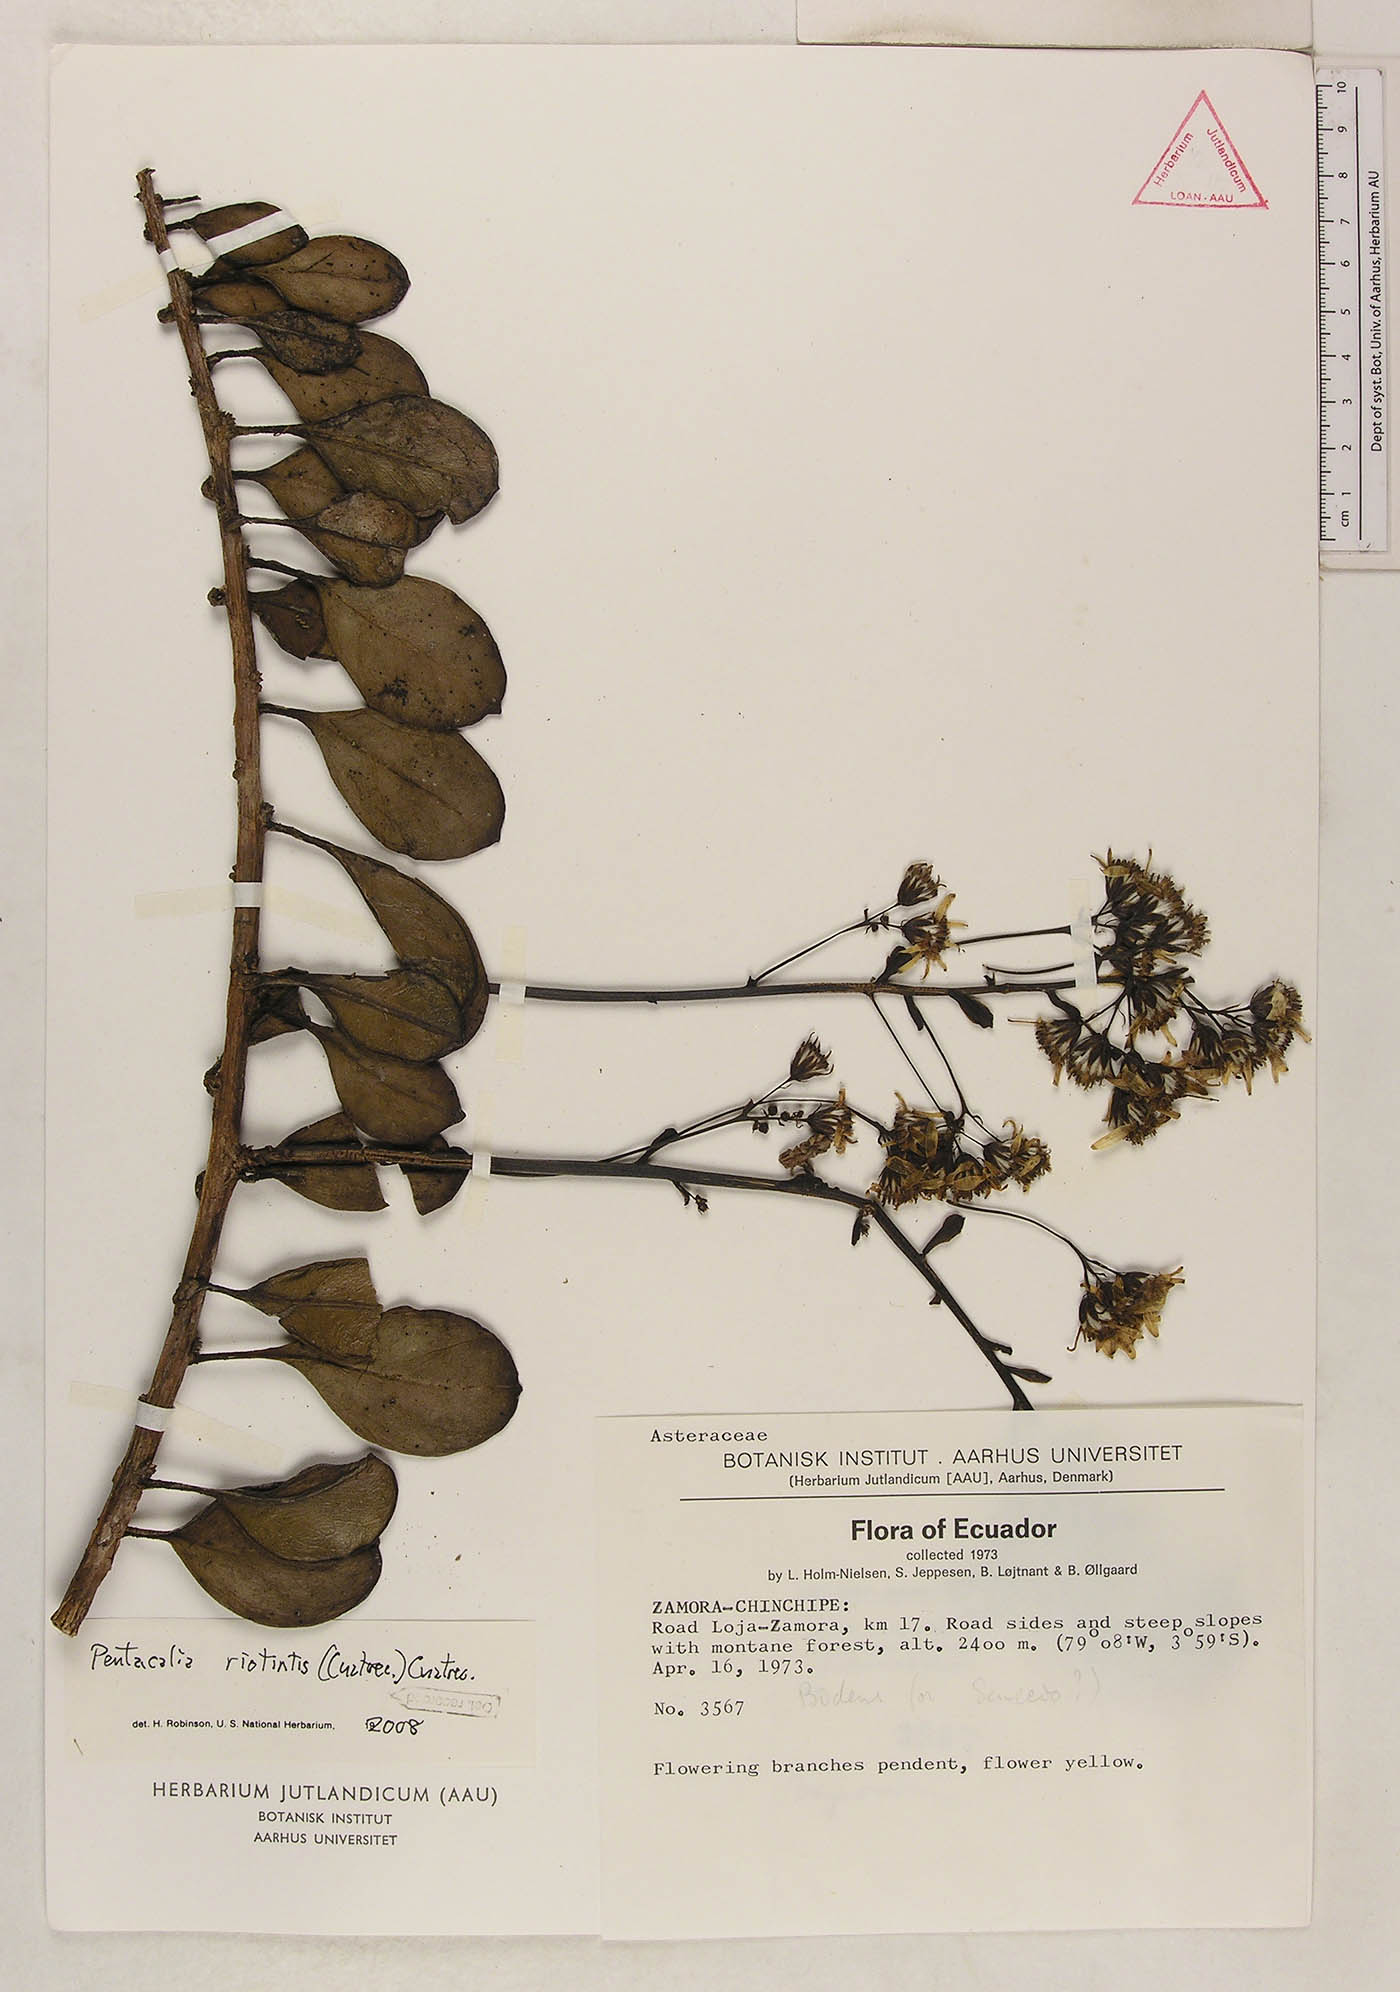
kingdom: Plantae
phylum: Tracheophyta
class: Magnoliopsida
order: Asterales
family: Asteraceae
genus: Pentacalia
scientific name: Pentacalia riotintis
